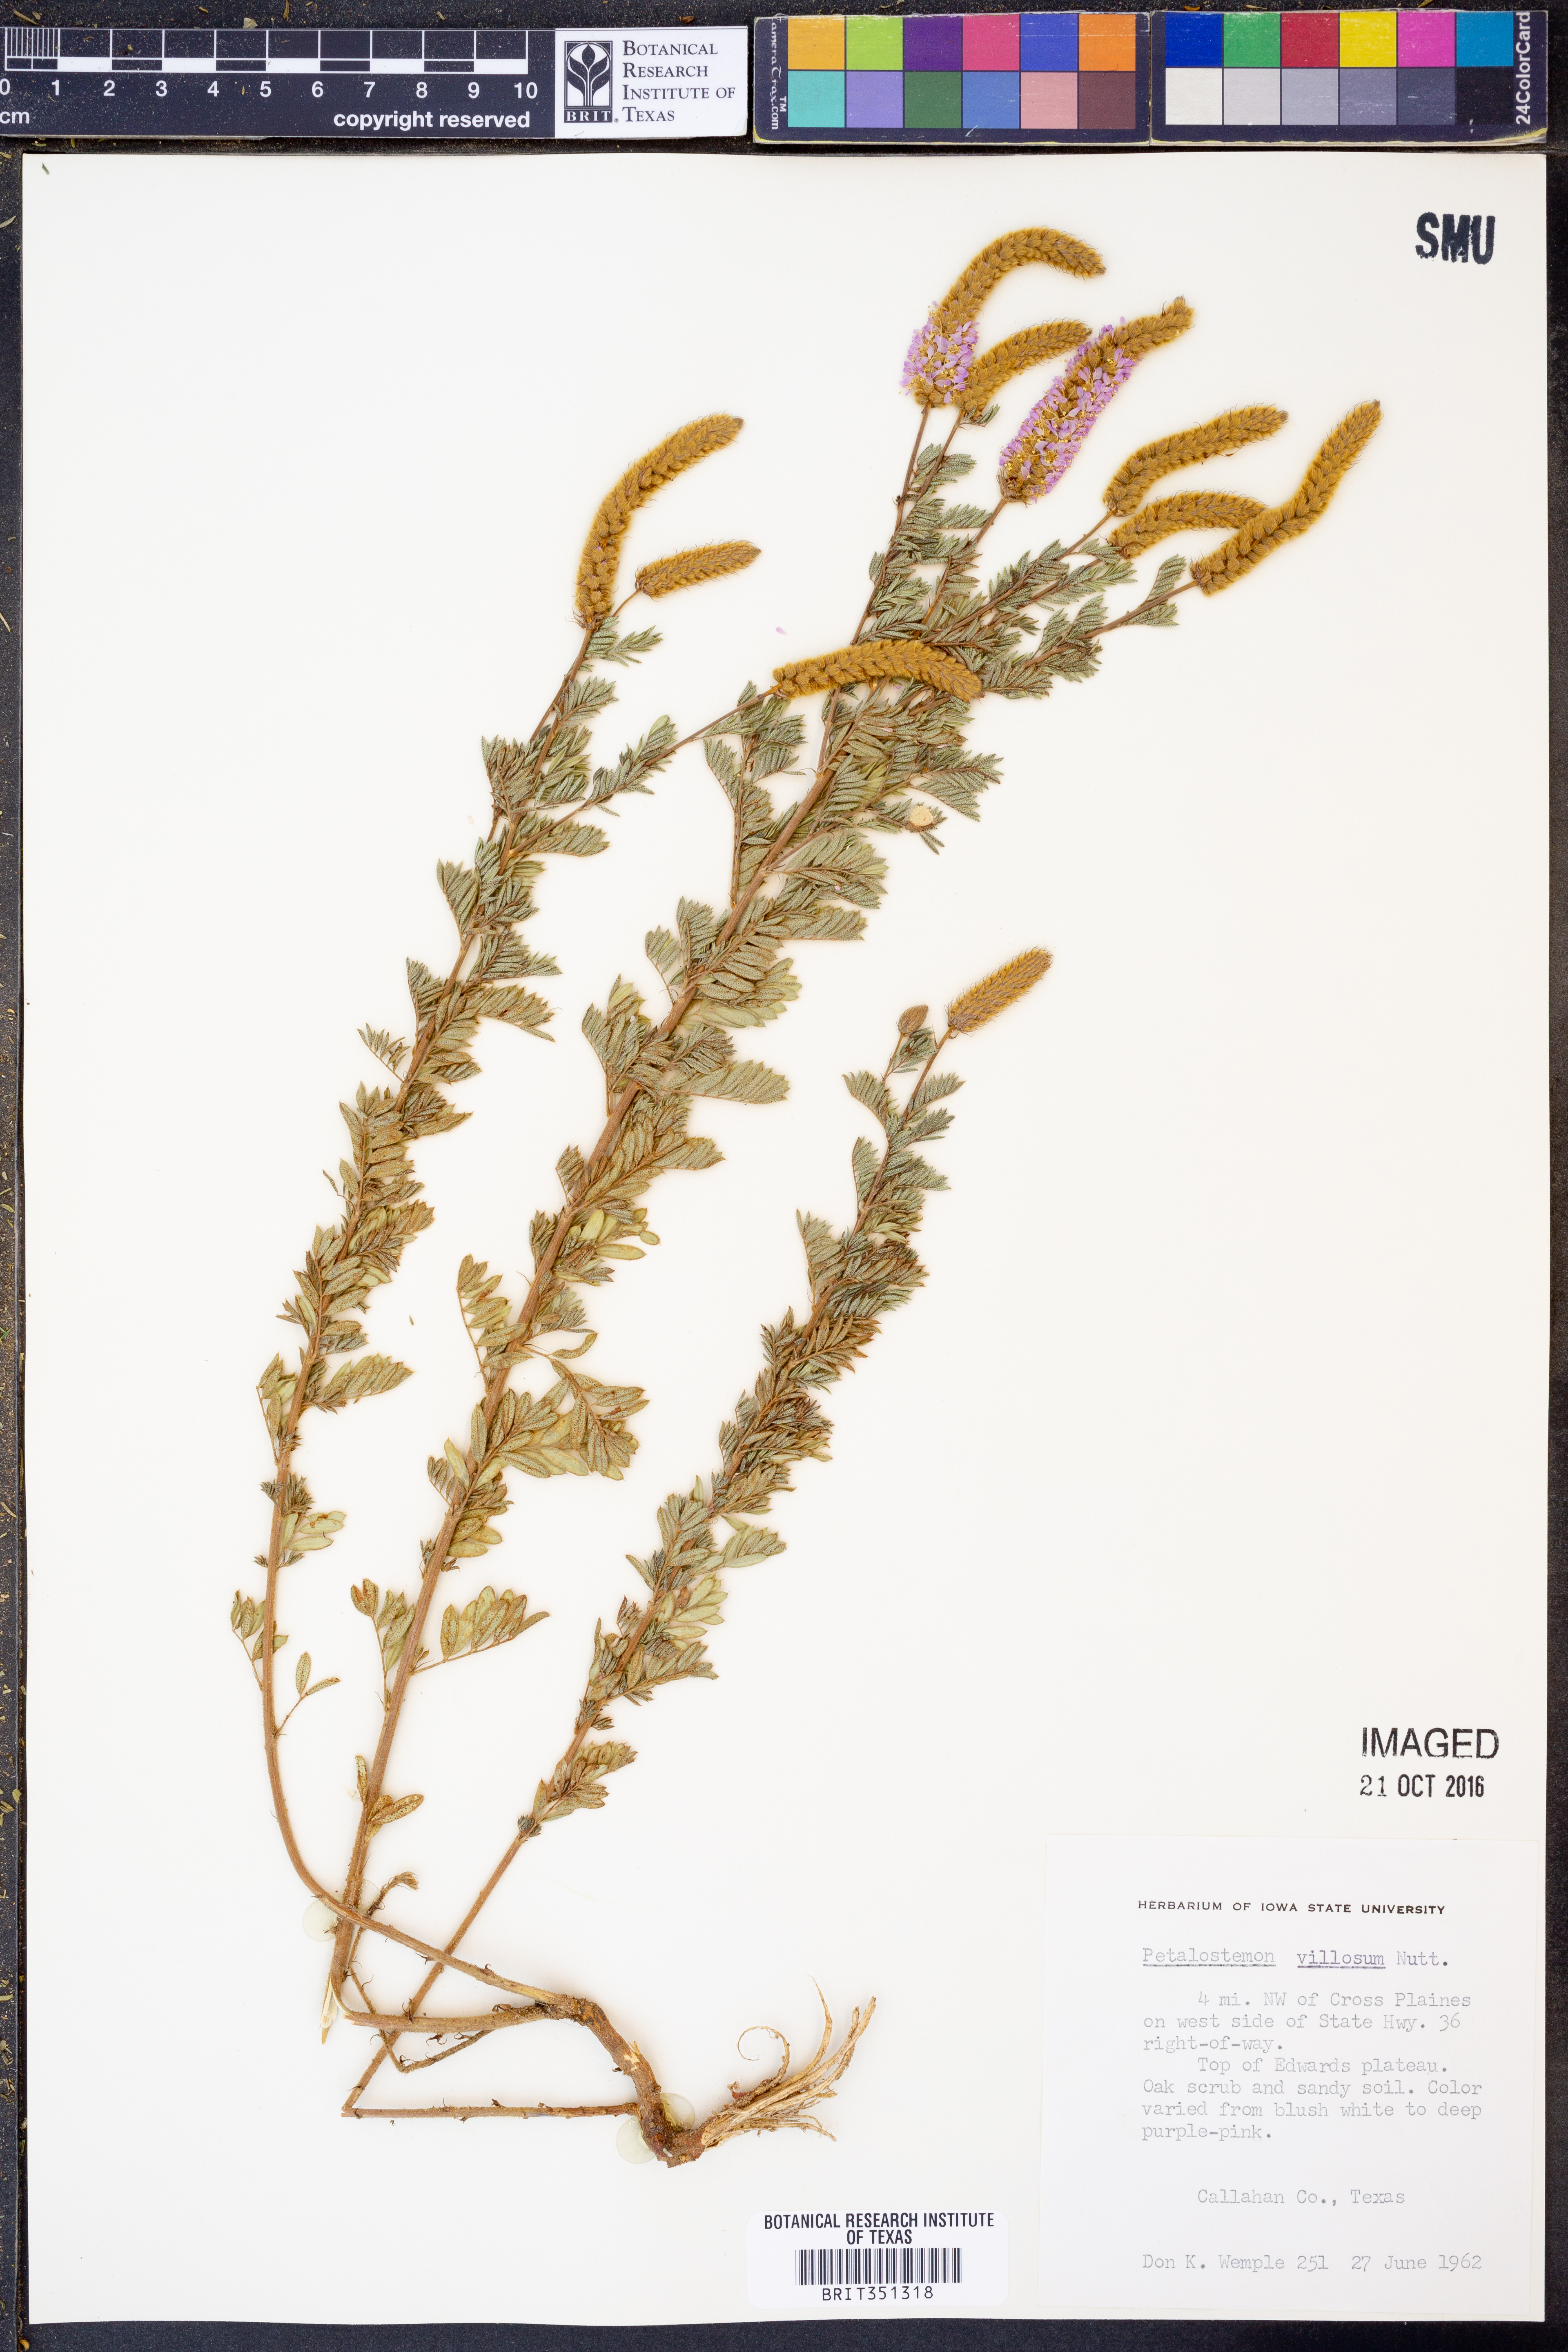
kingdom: Plantae
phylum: Tracheophyta
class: Magnoliopsida
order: Fabales
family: Fabaceae
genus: Dalea
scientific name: Dalea villosa
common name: Silky prairie-clover
